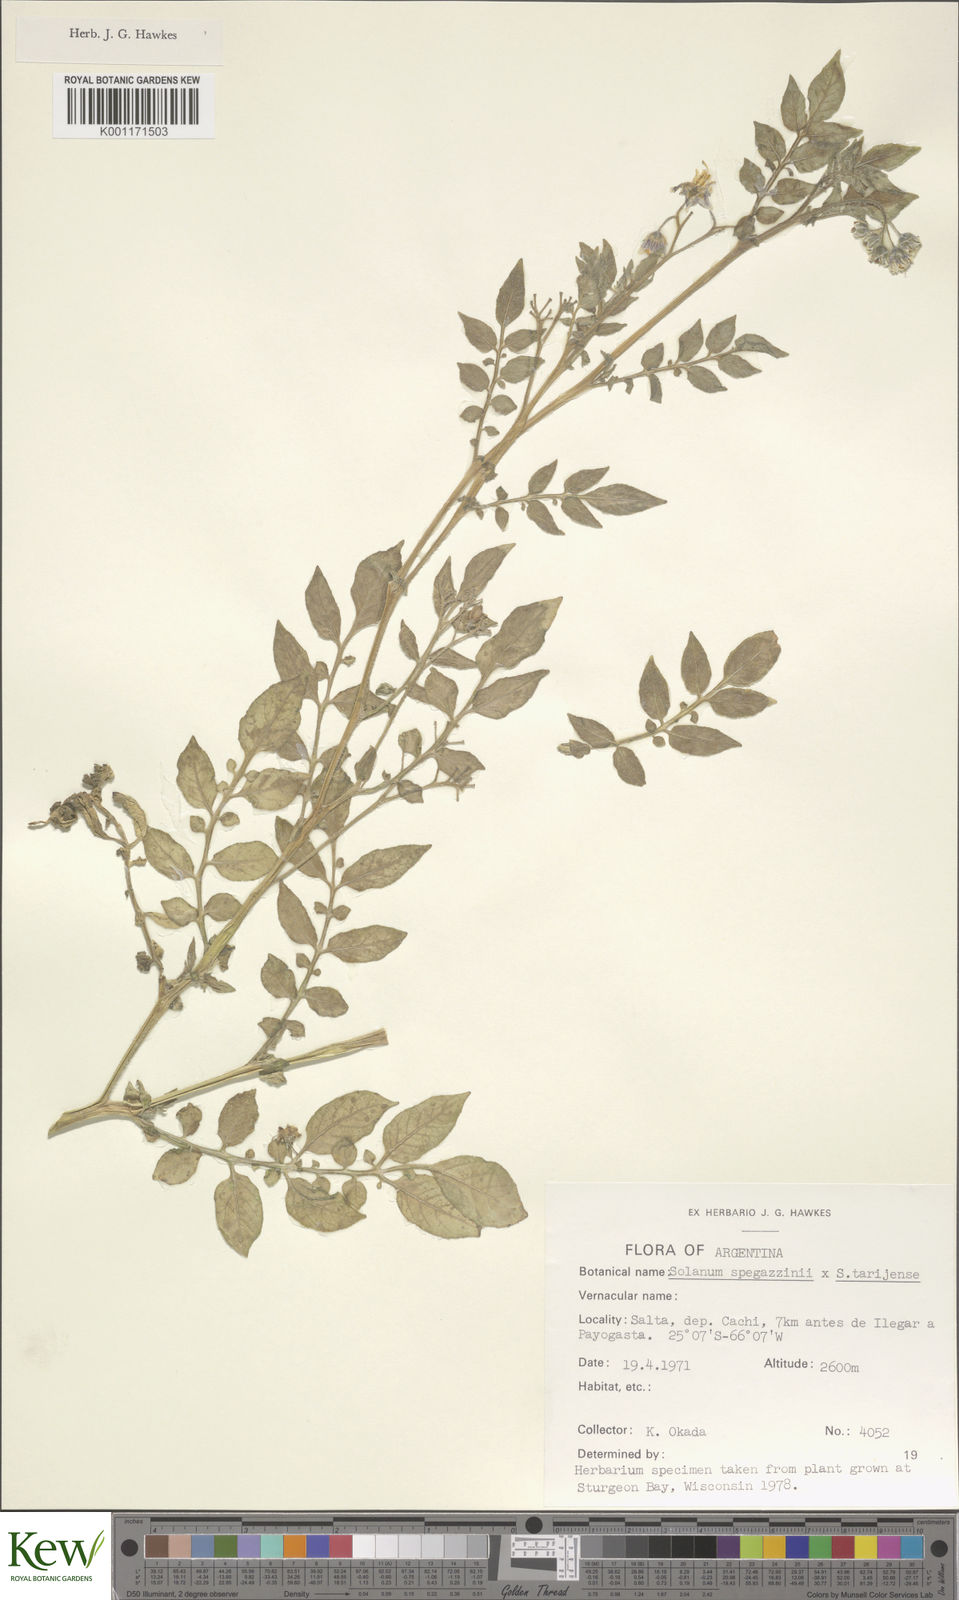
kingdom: Plantae
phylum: Tracheophyta
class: Magnoliopsida
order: Solanales
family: Solanaceae
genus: Solanum
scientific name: Solanum tarijense
